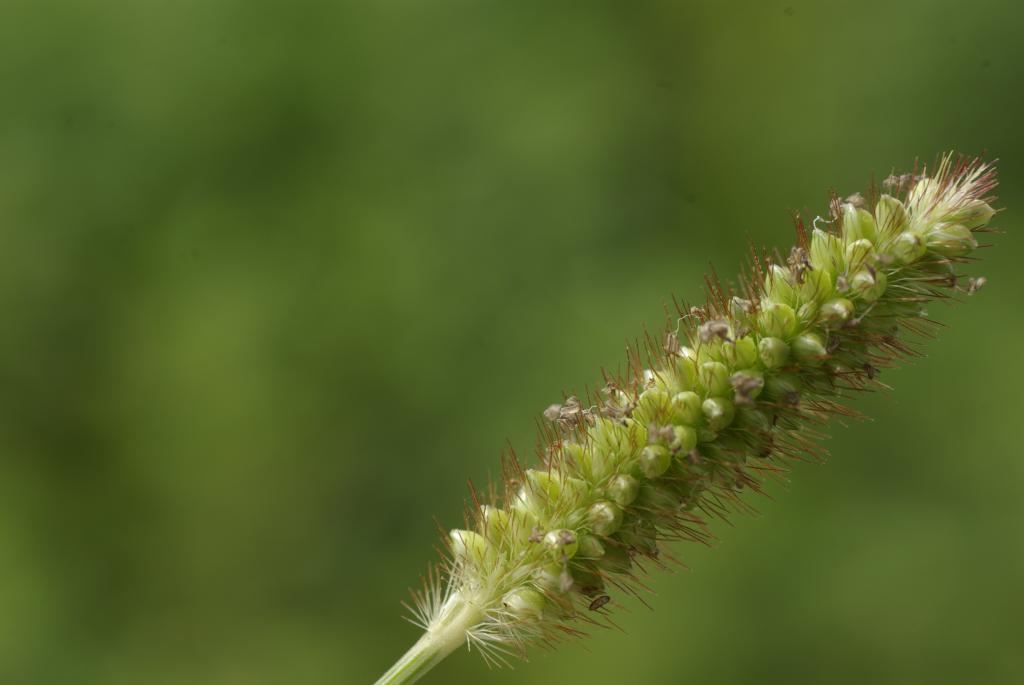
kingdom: Plantae
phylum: Tracheophyta
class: Liliopsida
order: Poales
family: Poaceae
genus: Setaria
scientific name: Setaria parviflora
